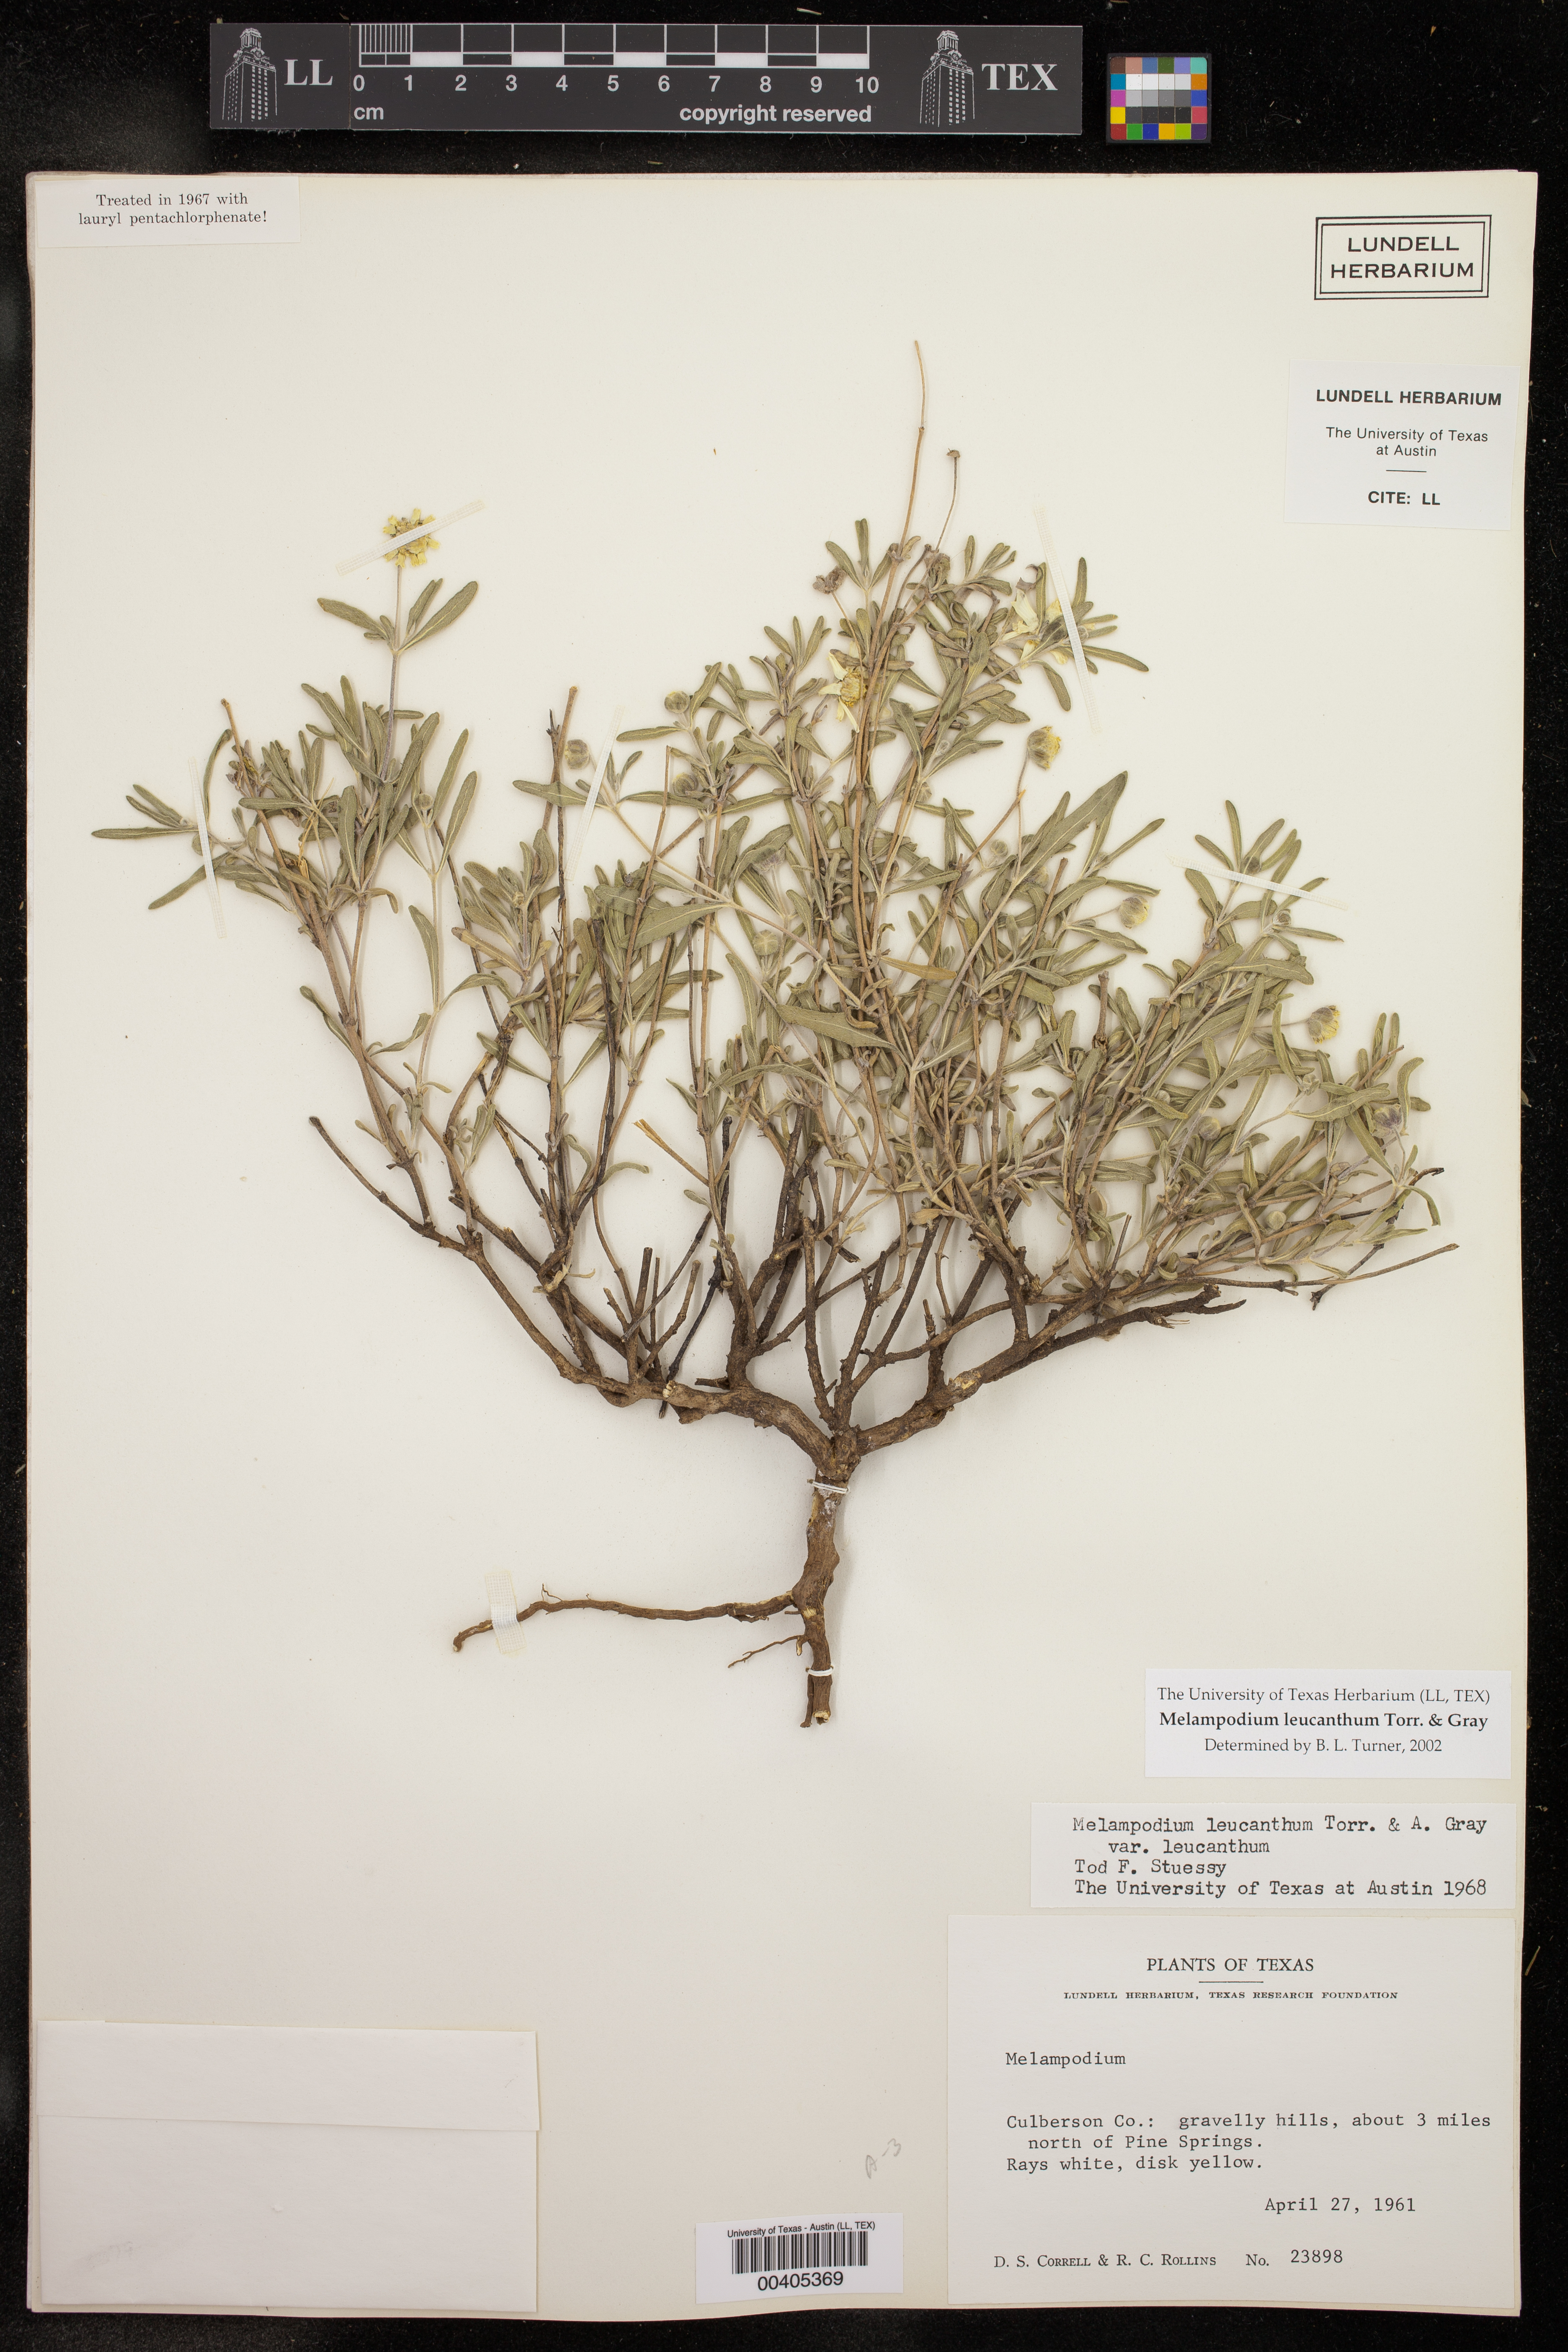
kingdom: Plantae
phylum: Tracheophyta
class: Magnoliopsida
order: Asterales
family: Asteraceae
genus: Melampodium
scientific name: Melampodium leucanthum
